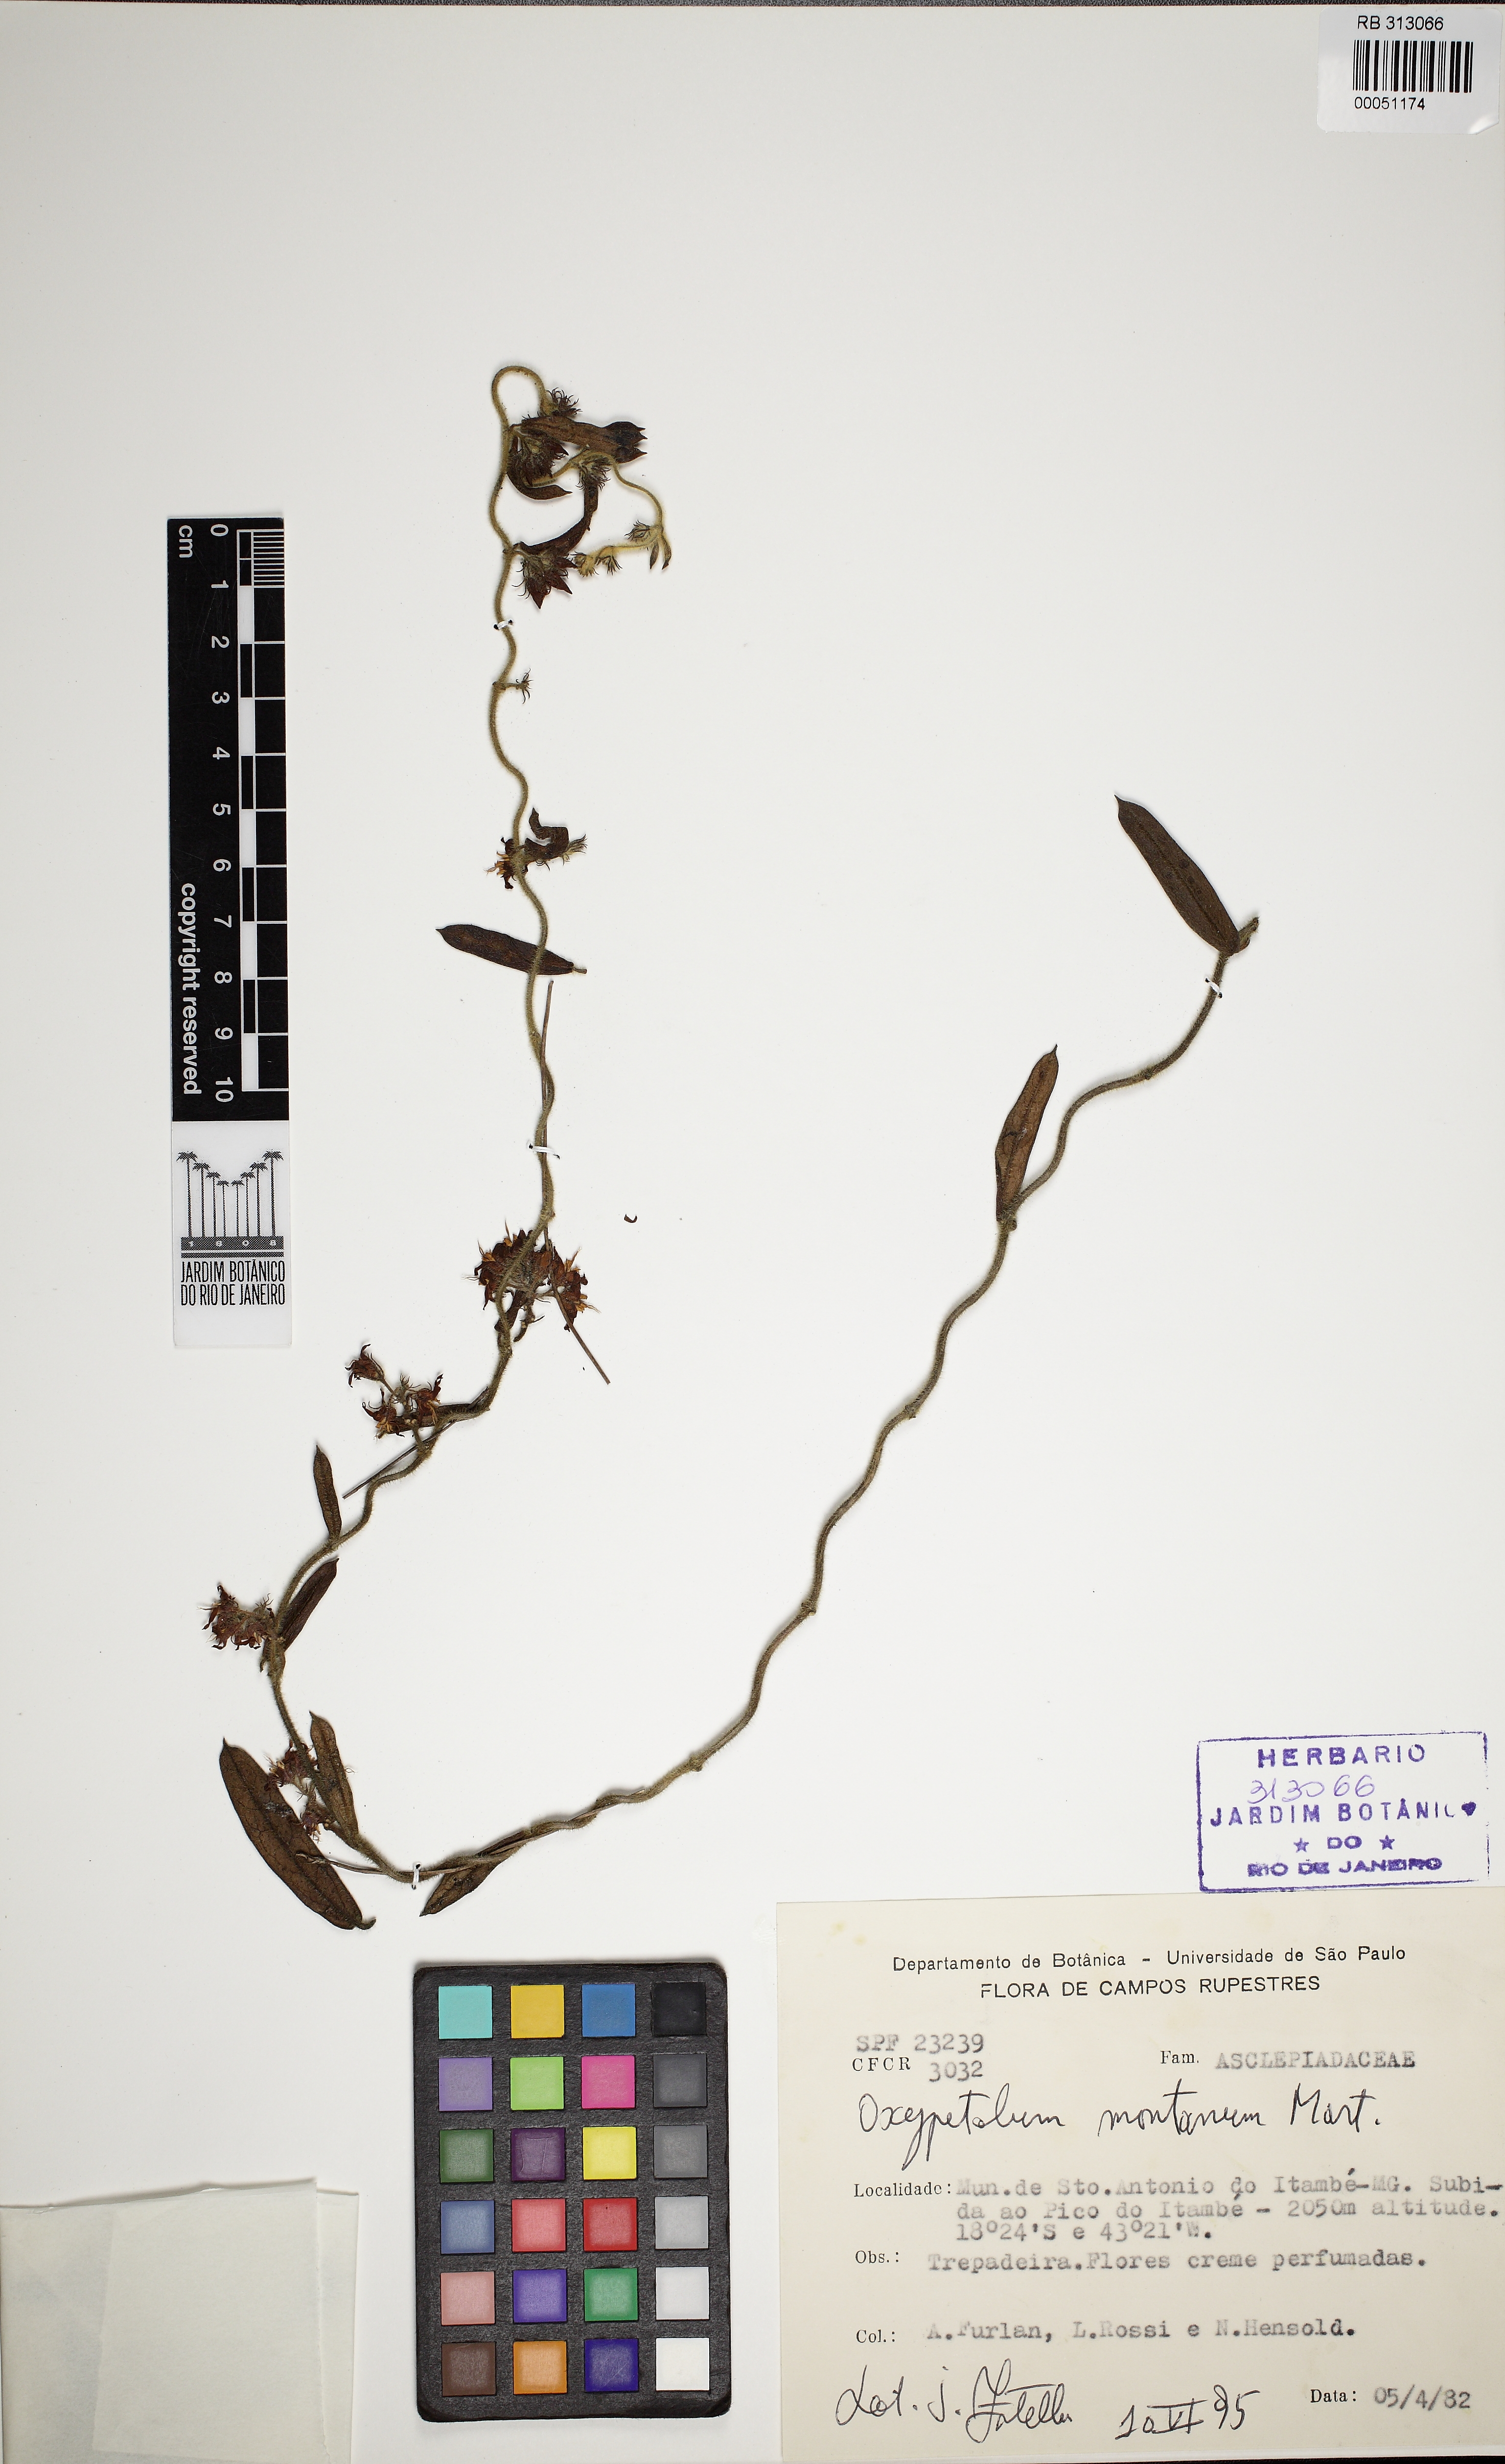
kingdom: Plantae
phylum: Tracheophyta
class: Magnoliopsida
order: Gentianales
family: Apocynaceae
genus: Oxypetalum
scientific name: Oxypetalum montanum
